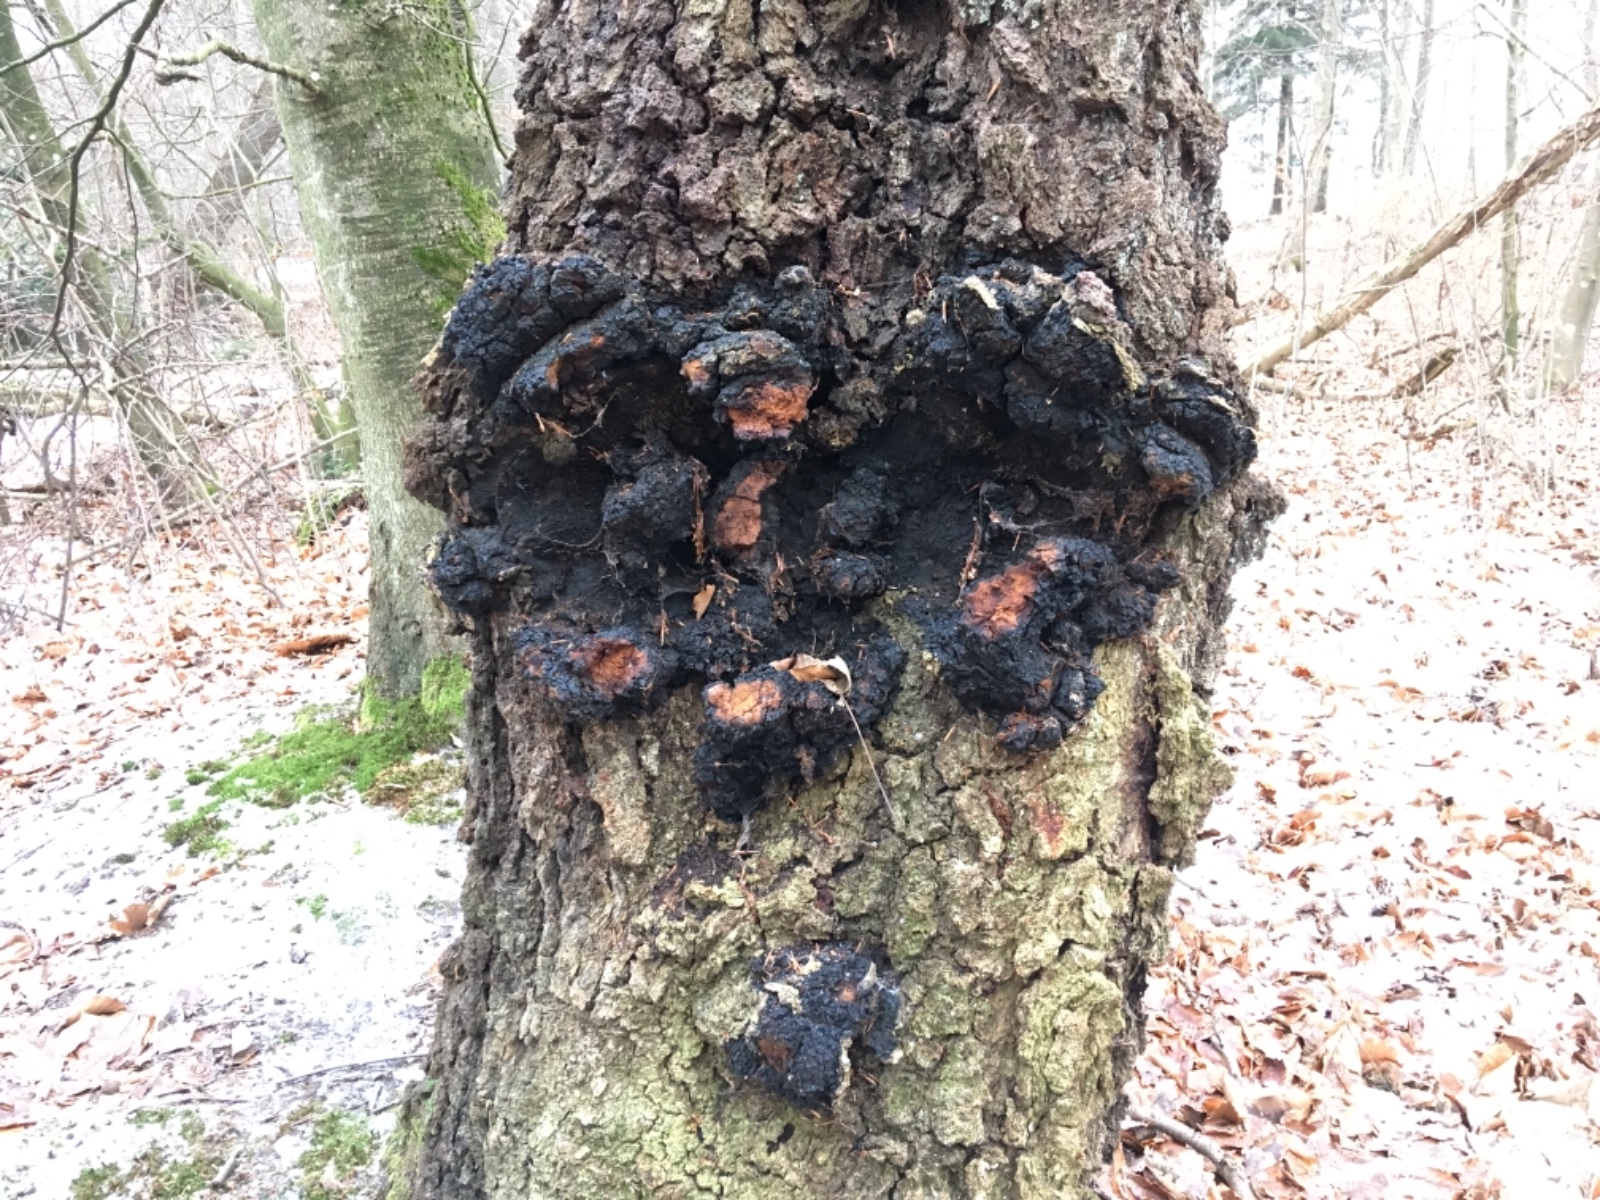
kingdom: Fungi
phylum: Basidiomycota
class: Agaricomycetes
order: Hymenochaetales
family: Hymenochaetaceae
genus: Inonotus
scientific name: Inonotus obliquus
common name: birke-spejlporesvamp
